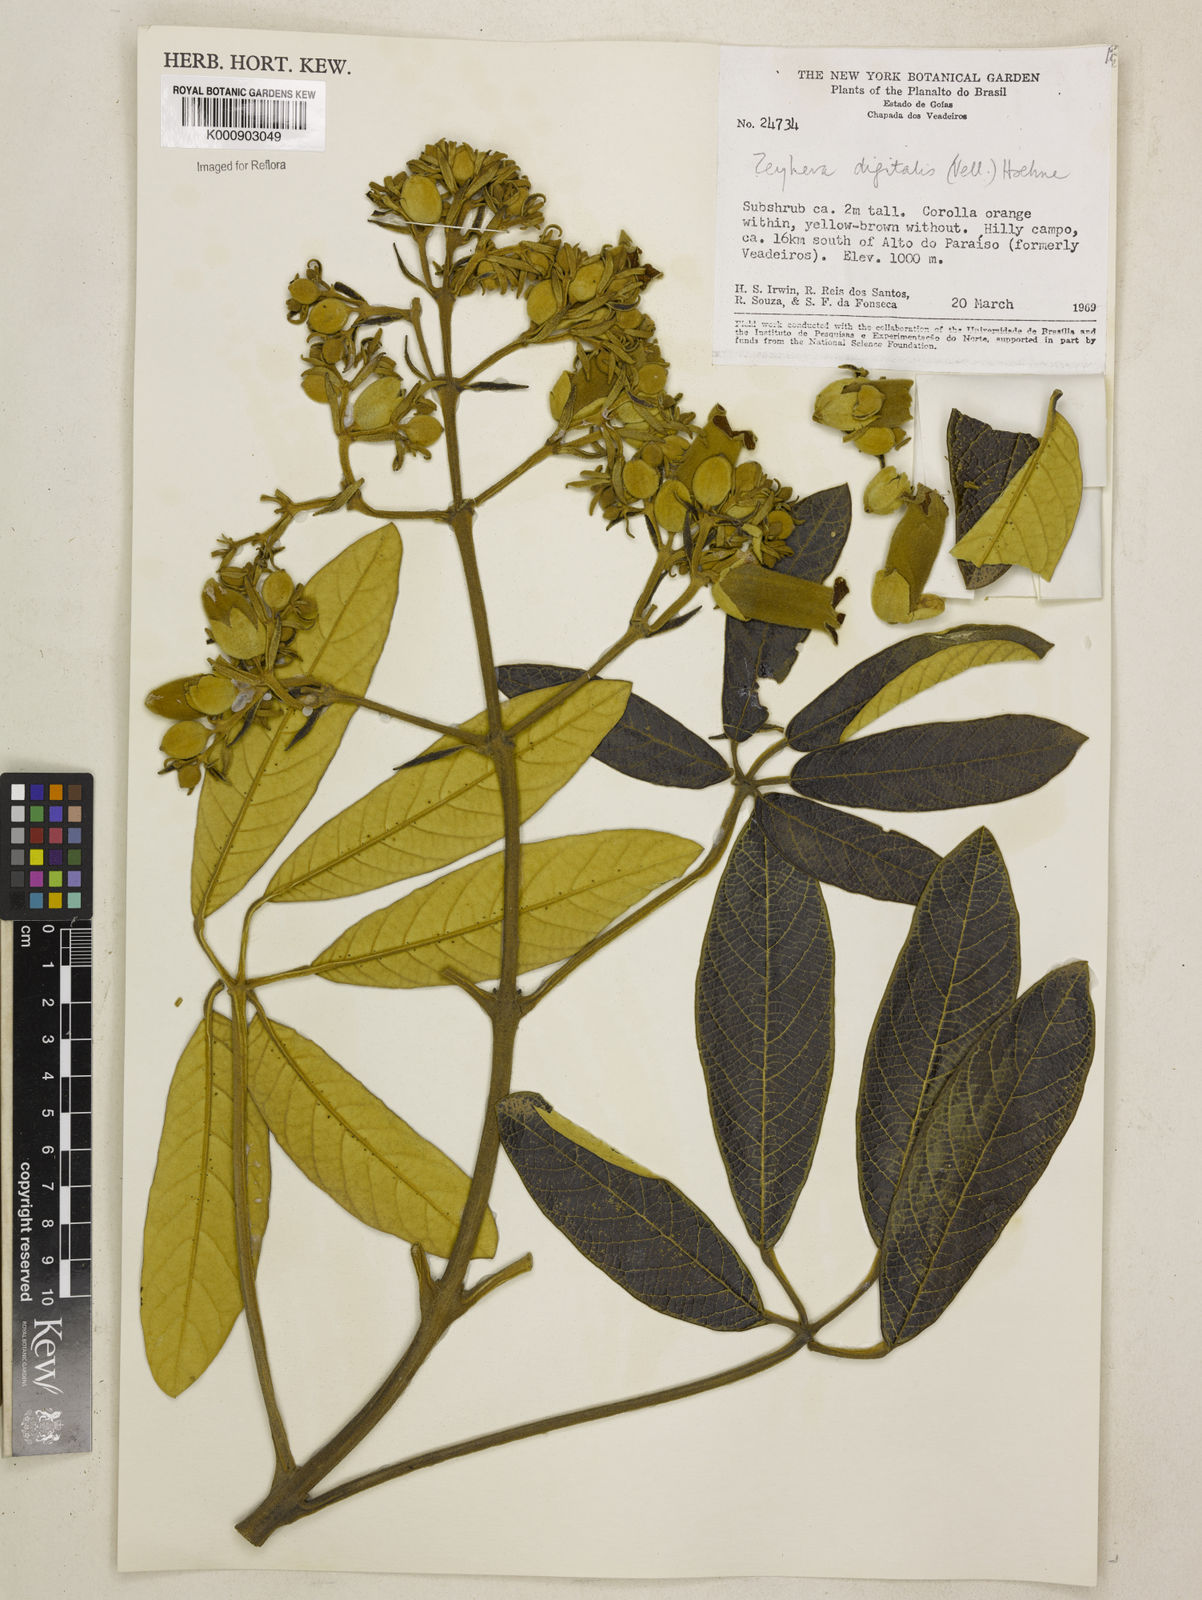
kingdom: Plantae
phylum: Tracheophyta
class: Magnoliopsida
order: Lamiales
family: Bignoniaceae
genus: Zeyheria
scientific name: Zeyheria
